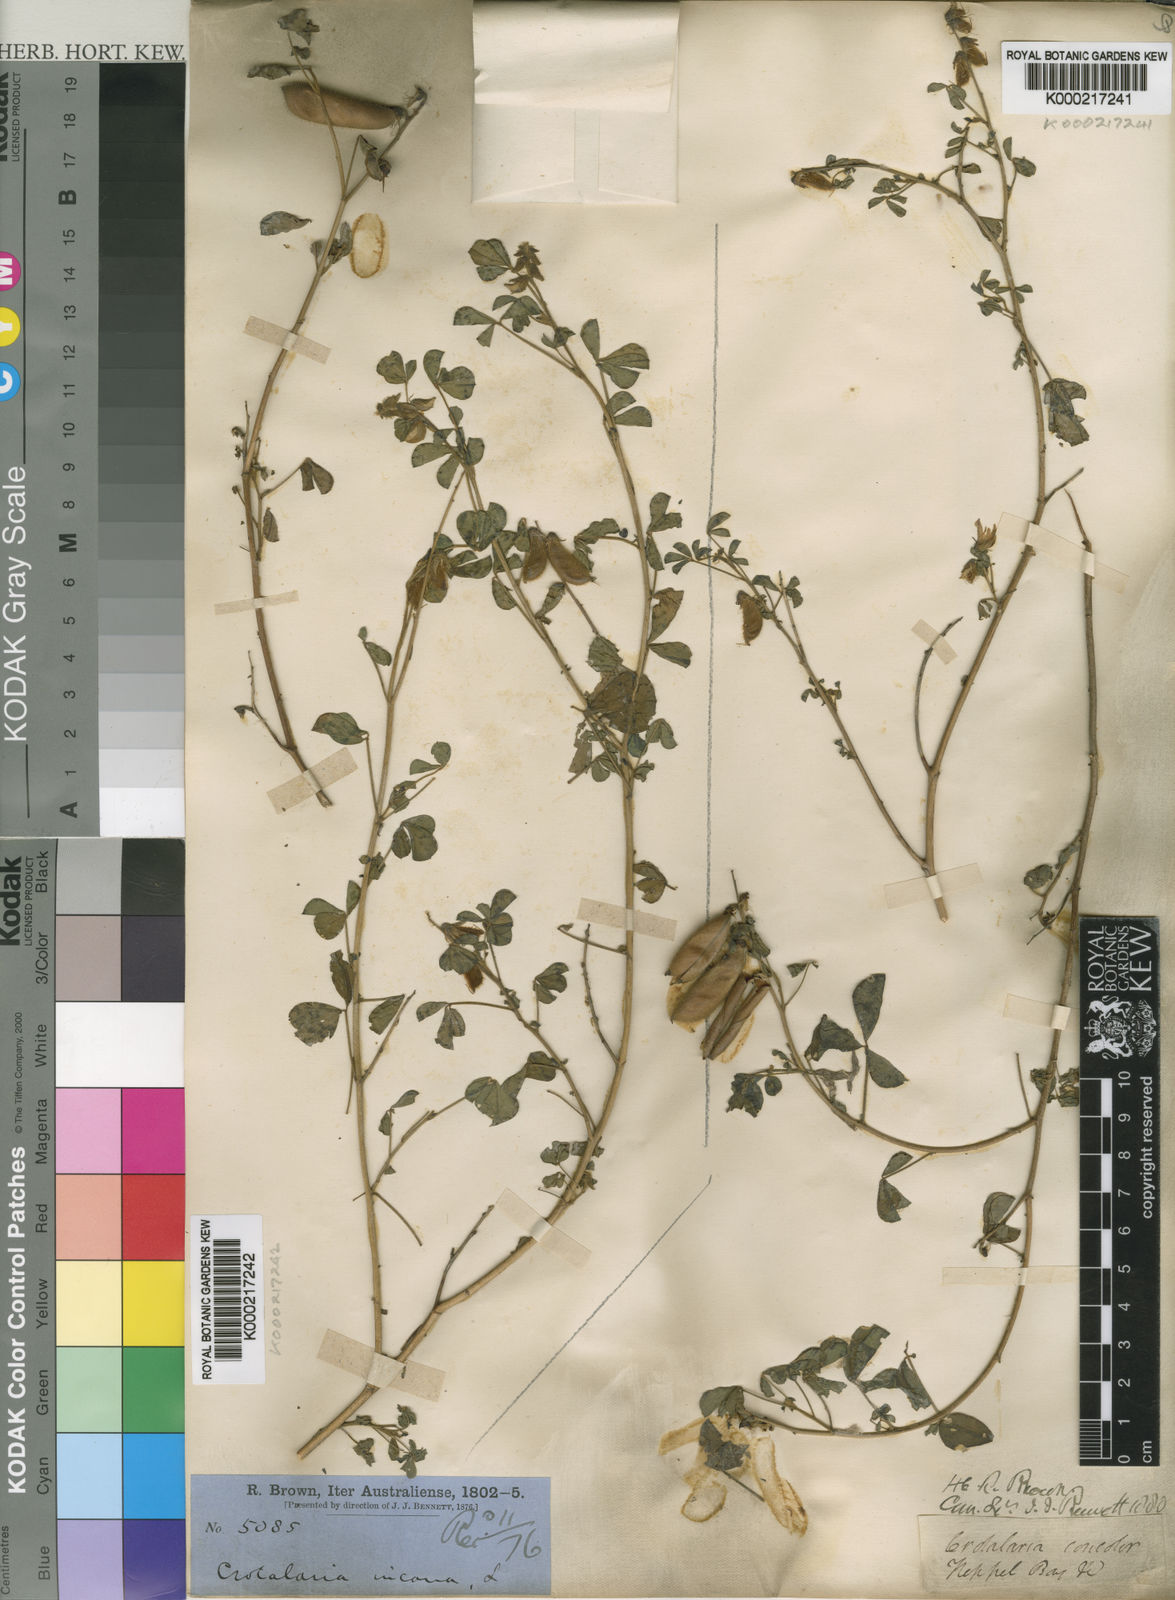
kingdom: Plantae
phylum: Tracheophyta
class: Magnoliopsida
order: Fabales
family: Fabaceae
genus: Crotalaria
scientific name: Crotalaria incana
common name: Shakeshake
